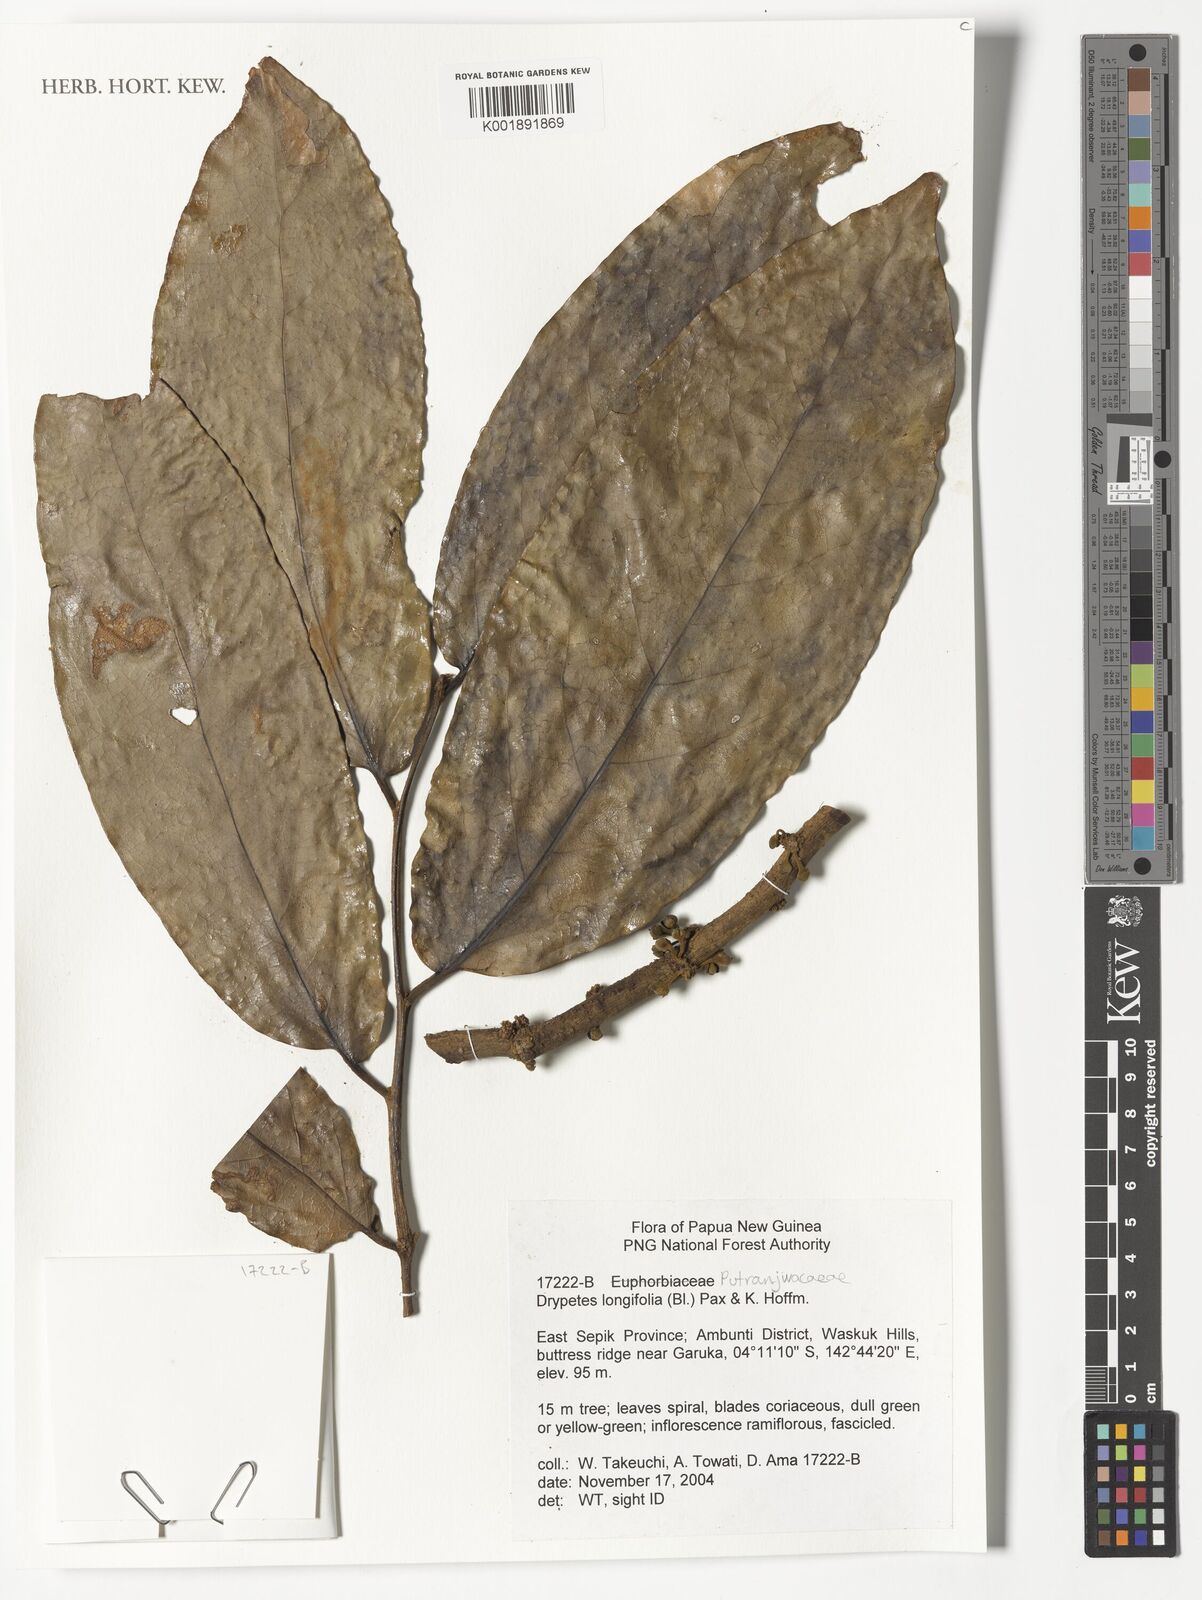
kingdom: Plantae
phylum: Tracheophyta
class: Magnoliopsida
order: Malpighiales
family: Putranjivaceae
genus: Drypetes
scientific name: Drypetes longifolia
